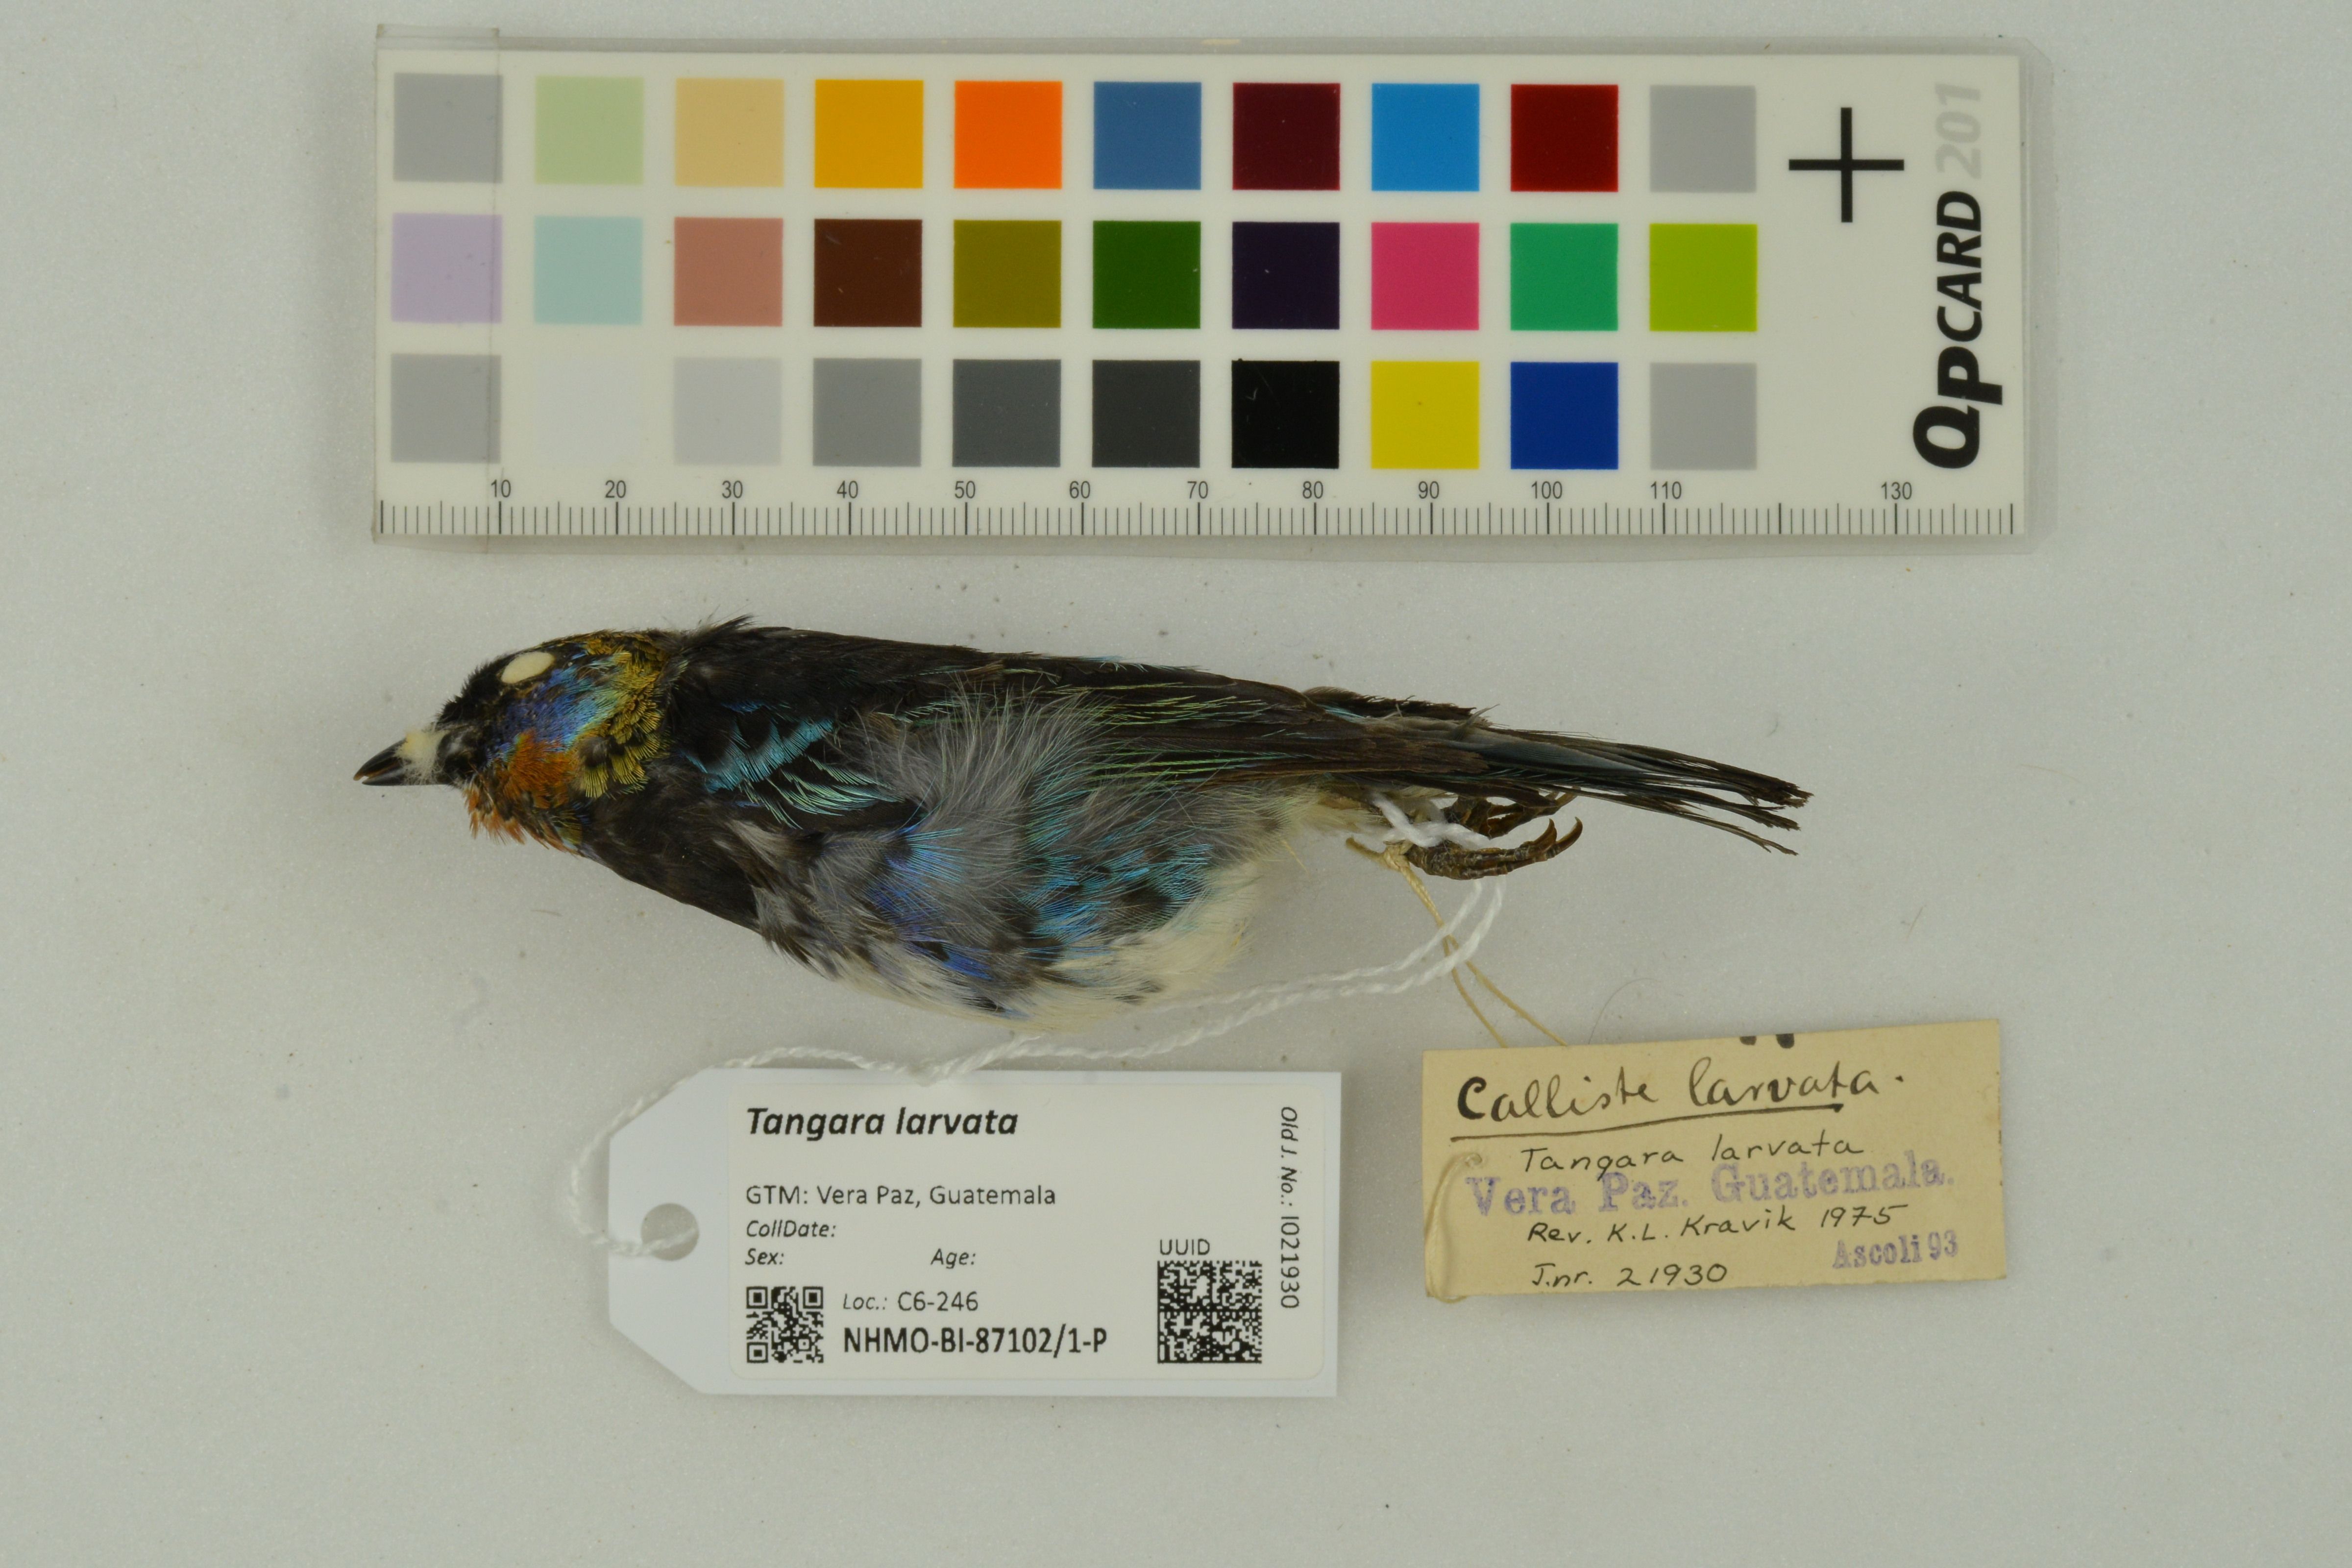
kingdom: Animalia
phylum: Chordata
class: Aves
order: Passeriformes
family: Thraupidae
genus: Stilpnia
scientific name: Stilpnia larvata
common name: Golden-hooded tanager
